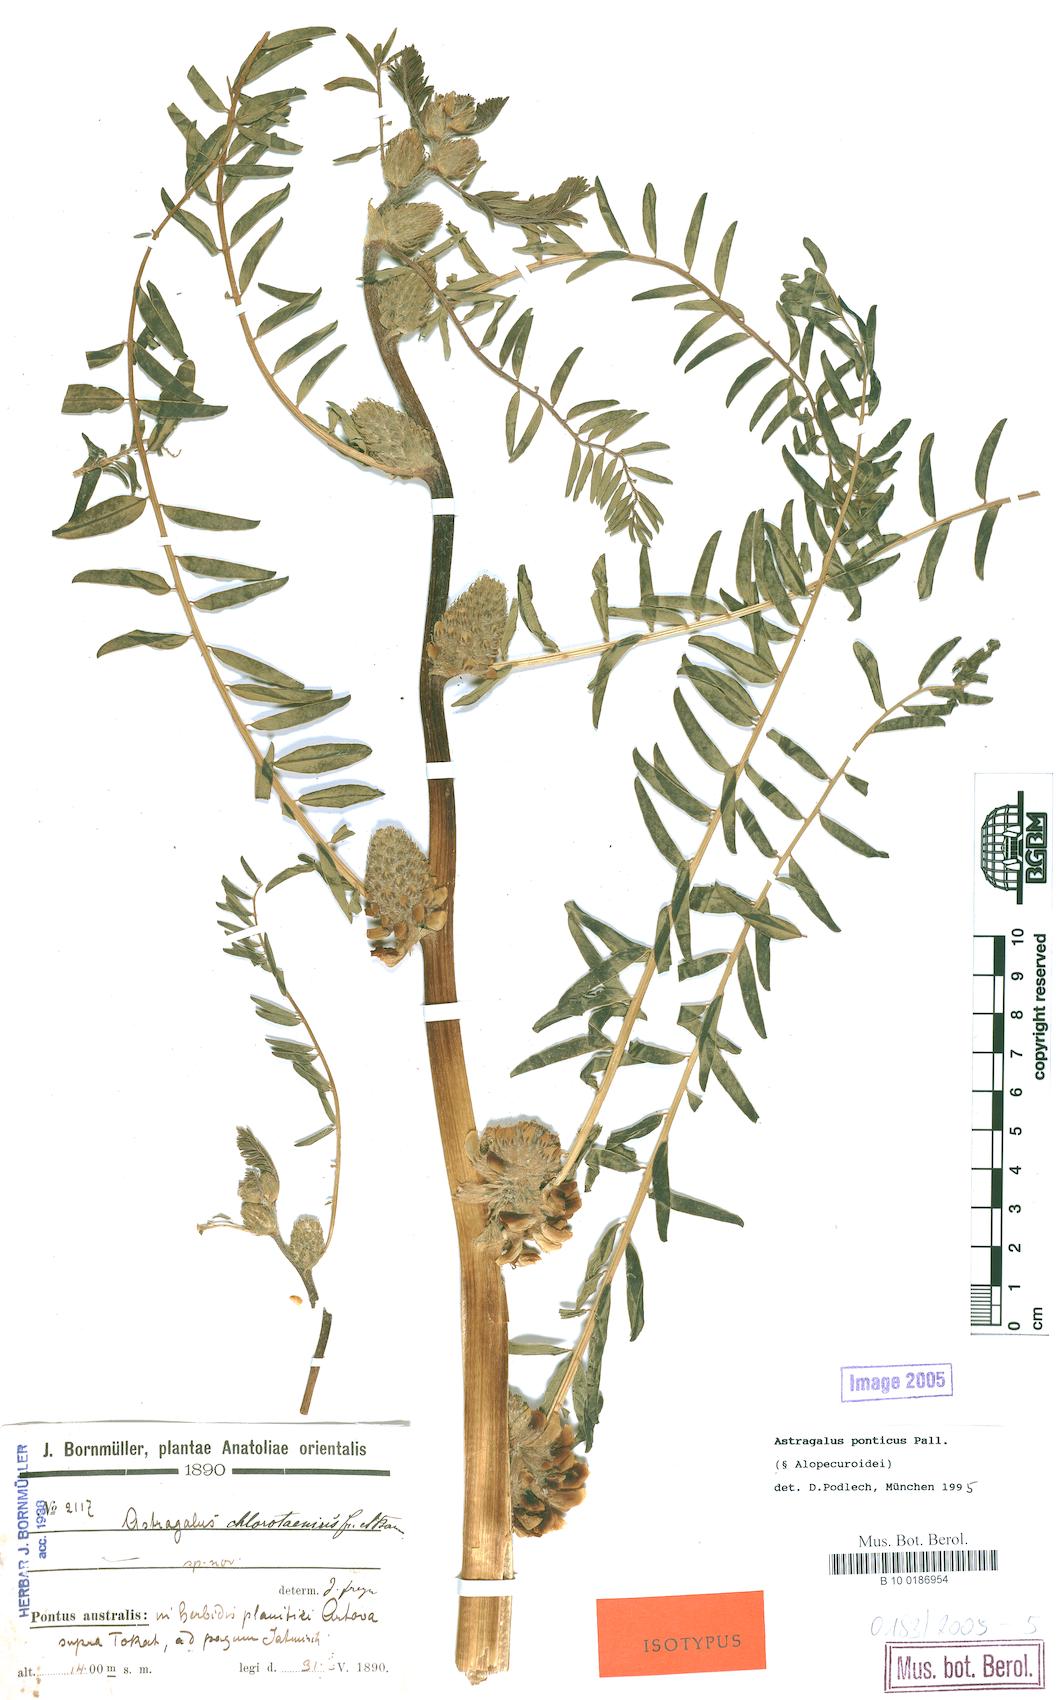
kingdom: Plantae
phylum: Tracheophyta
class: Magnoliopsida
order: Fabales
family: Fabaceae
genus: Astragalus
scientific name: Astragalus ponticus
